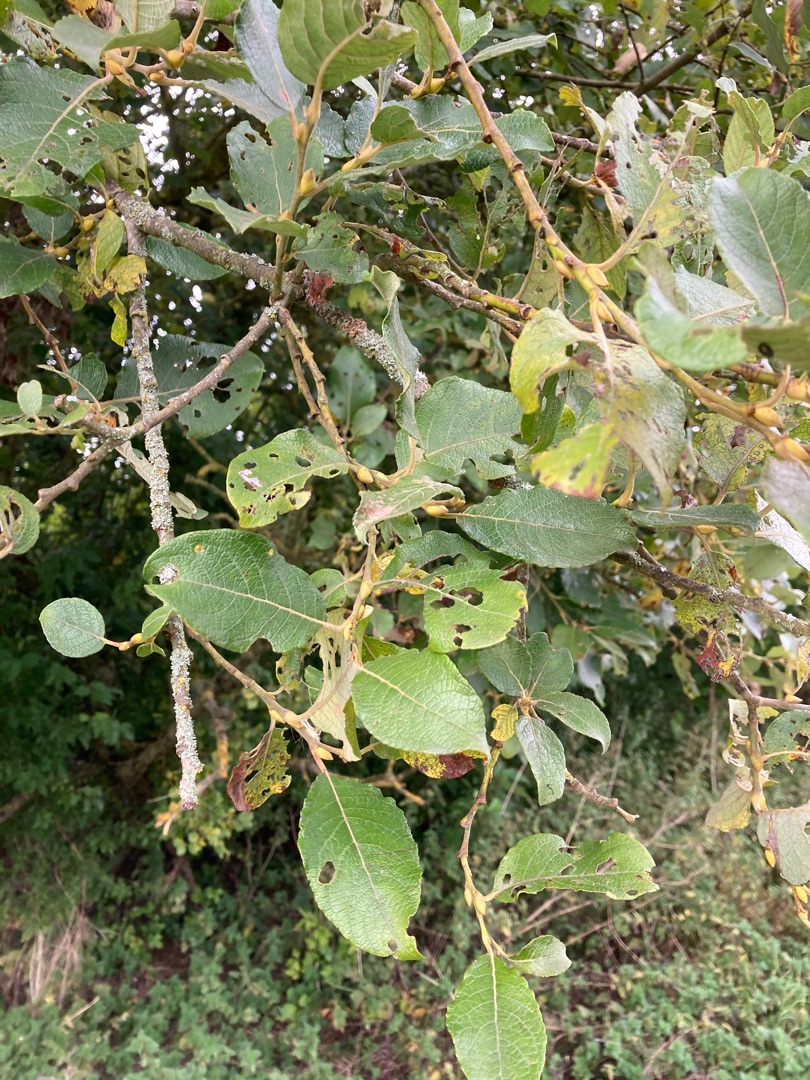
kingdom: Plantae
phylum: Tracheophyta
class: Magnoliopsida
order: Malpighiales
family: Salicaceae
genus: Salix
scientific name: Salix caprea
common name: Selje-pil
